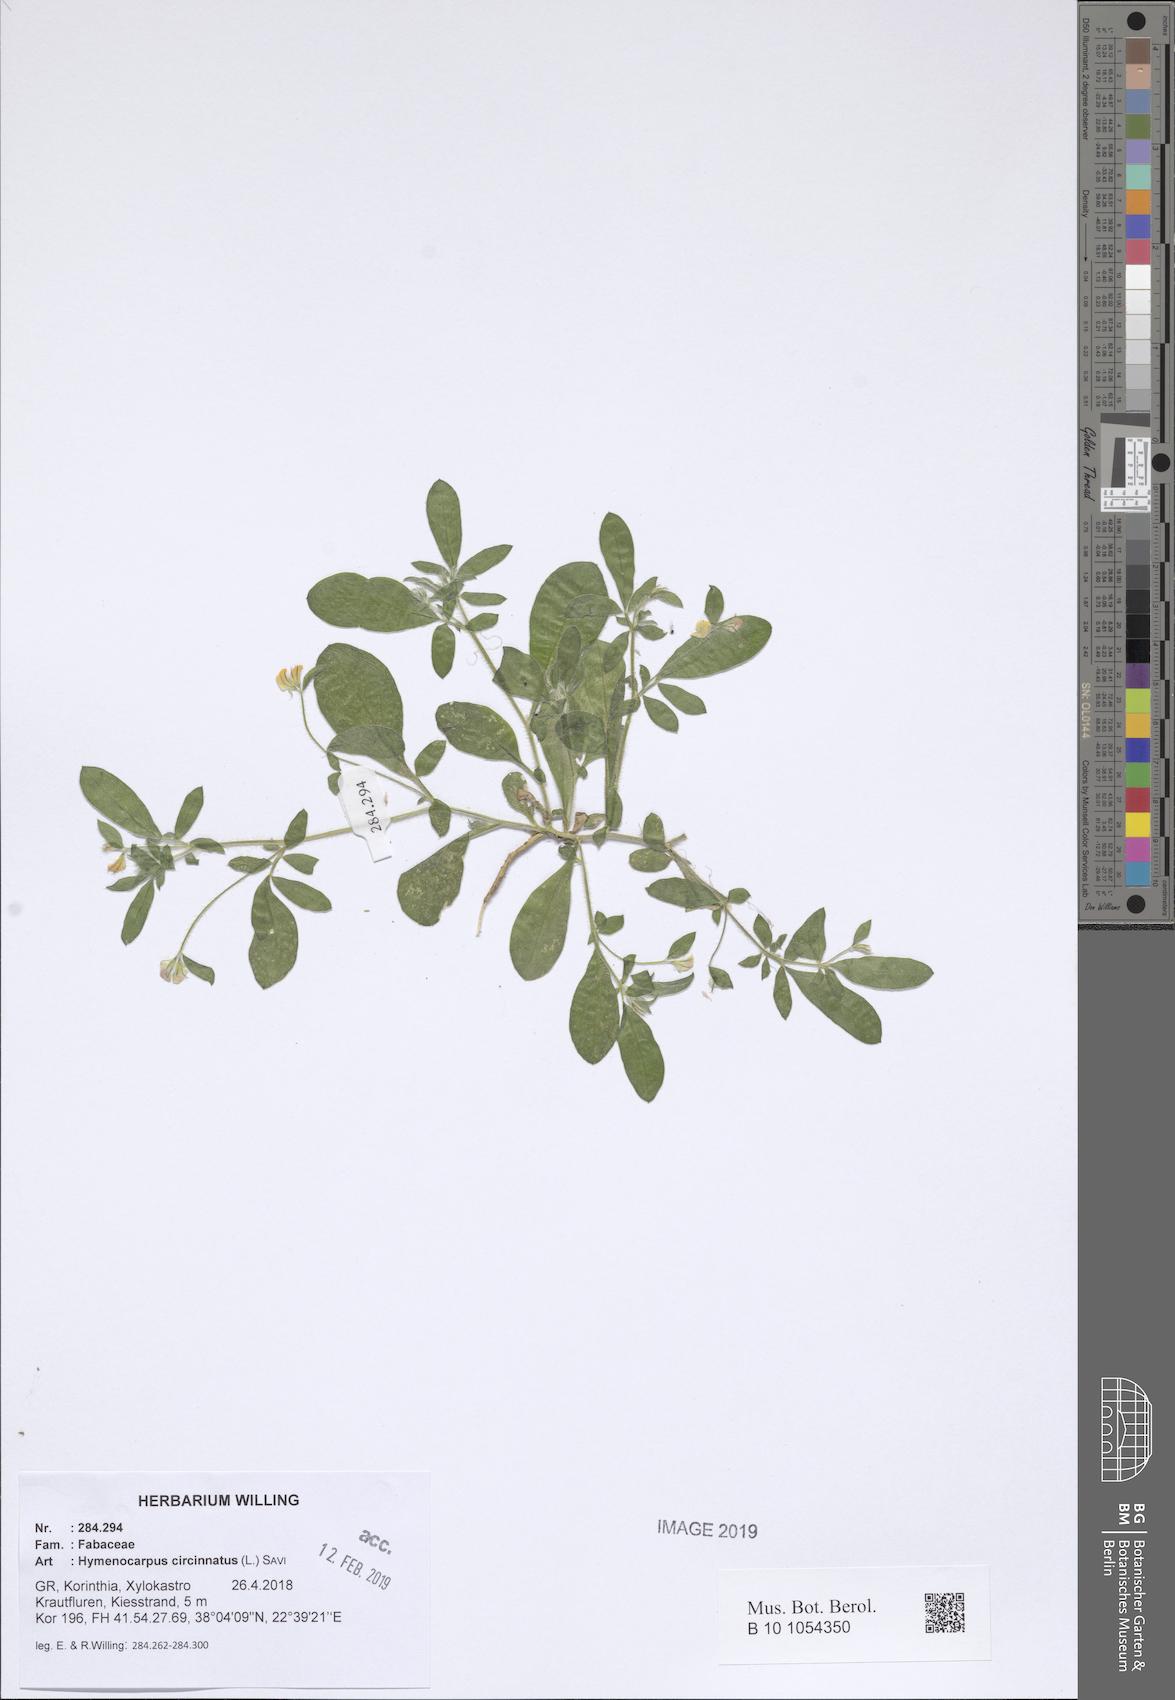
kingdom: Plantae
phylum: Tracheophyta
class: Magnoliopsida
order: Fabales
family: Fabaceae
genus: Anthyllis
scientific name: Anthyllis circinnata
